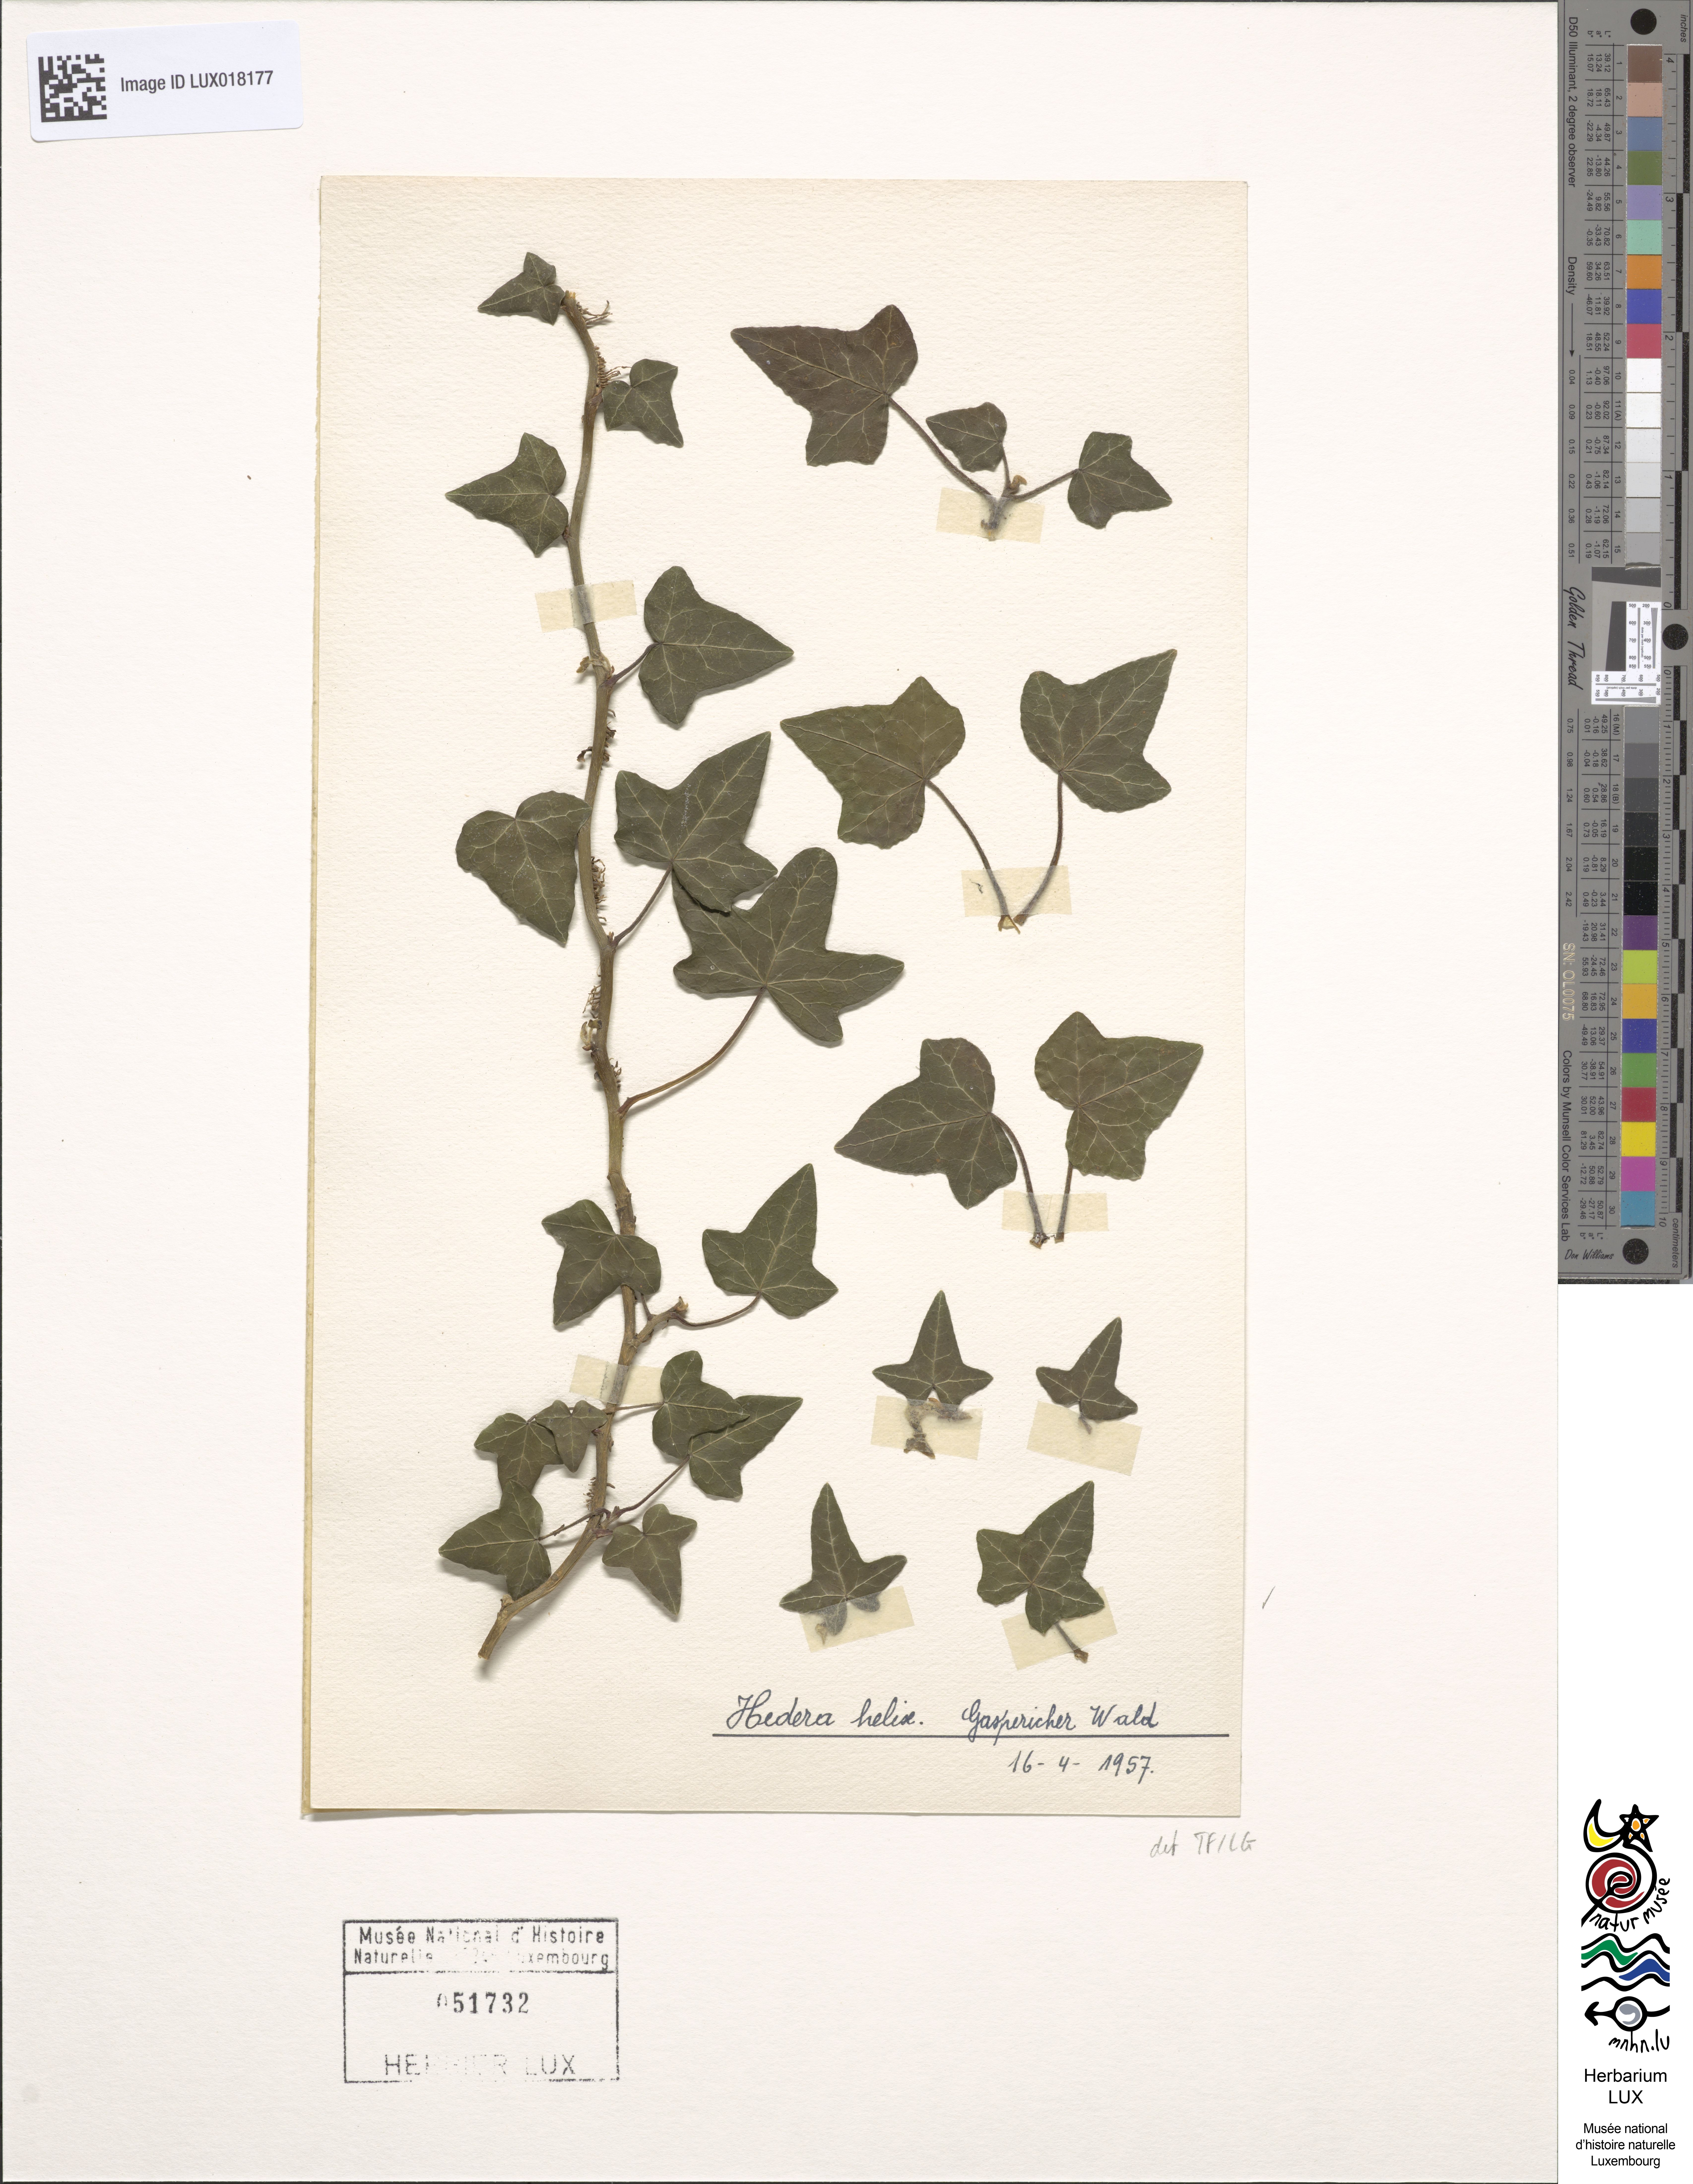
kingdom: Plantae
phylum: Tracheophyta
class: Magnoliopsida
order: Apiales
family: Araliaceae
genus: Hedera
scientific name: Hedera helix
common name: Ivy
